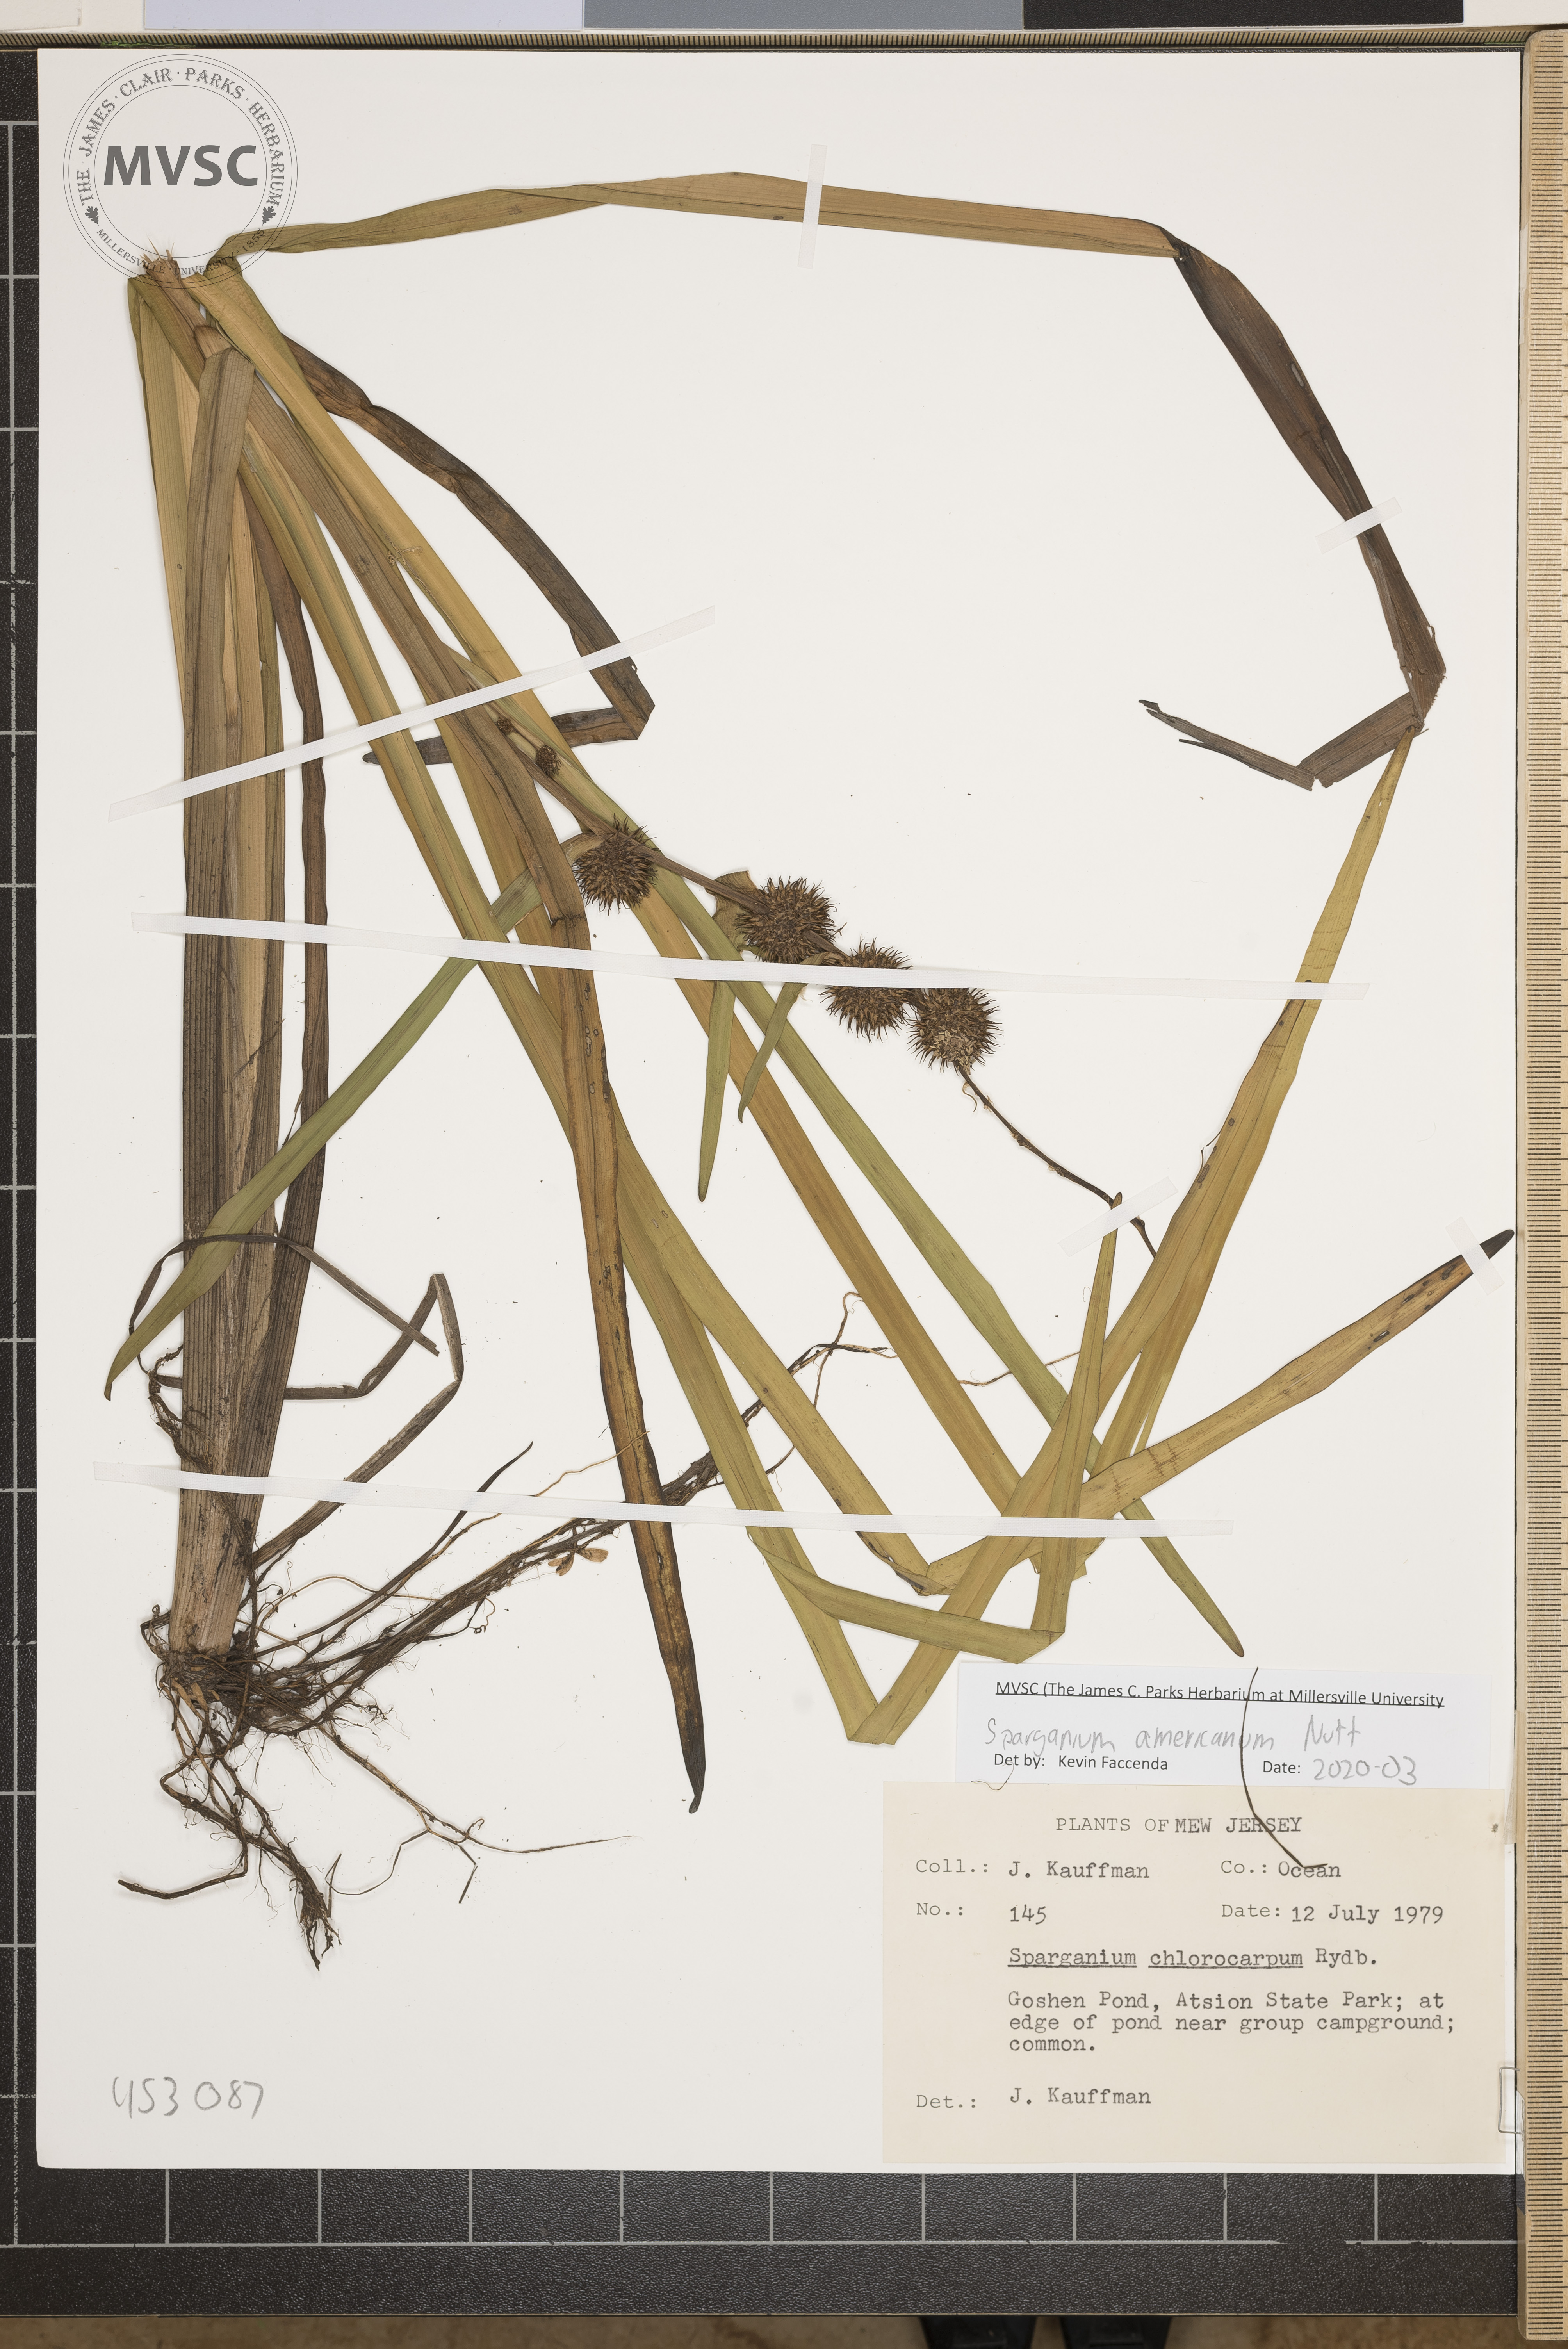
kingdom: Plantae
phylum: Tracheophyta
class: Liliopsida
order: Poales
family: Typhaceae
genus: Sparganium
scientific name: Sparganium americanum
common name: American burreed
